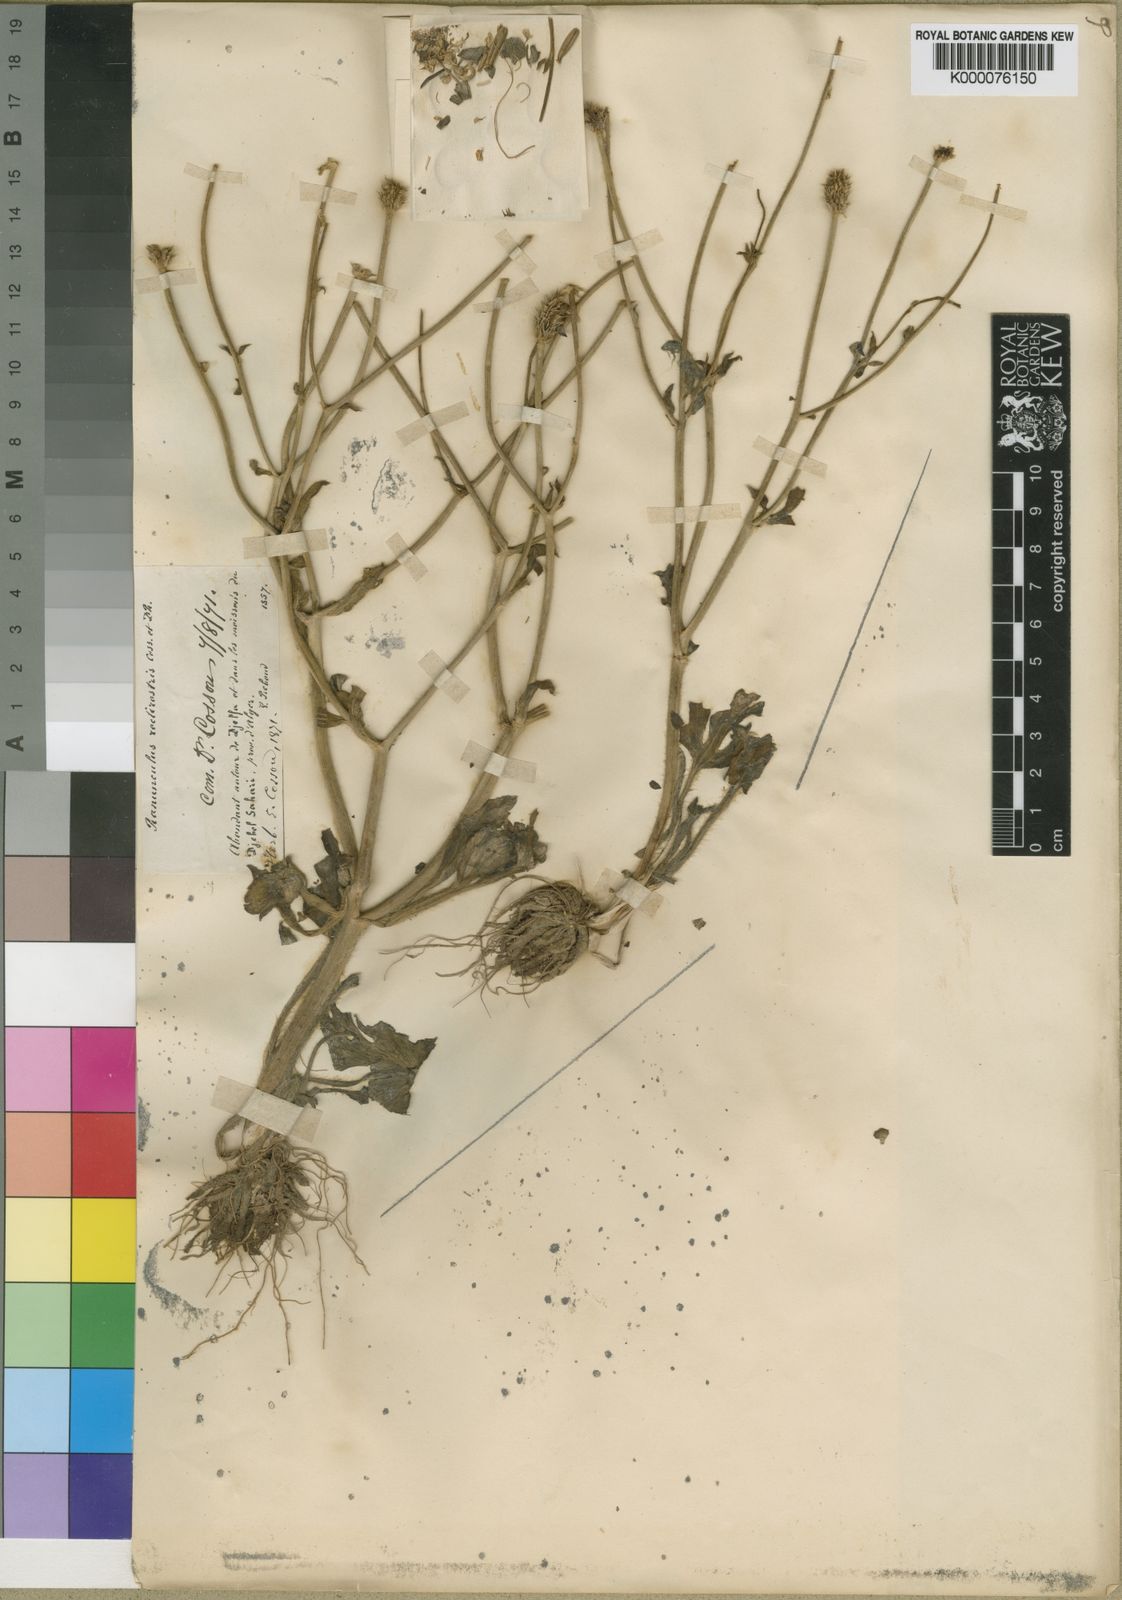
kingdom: Plantae
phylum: Tracheophyta
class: Magnoliopsida
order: Ranunculales
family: Ranunculaceae
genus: Ranunculus
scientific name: Ranunculus rectirostris
